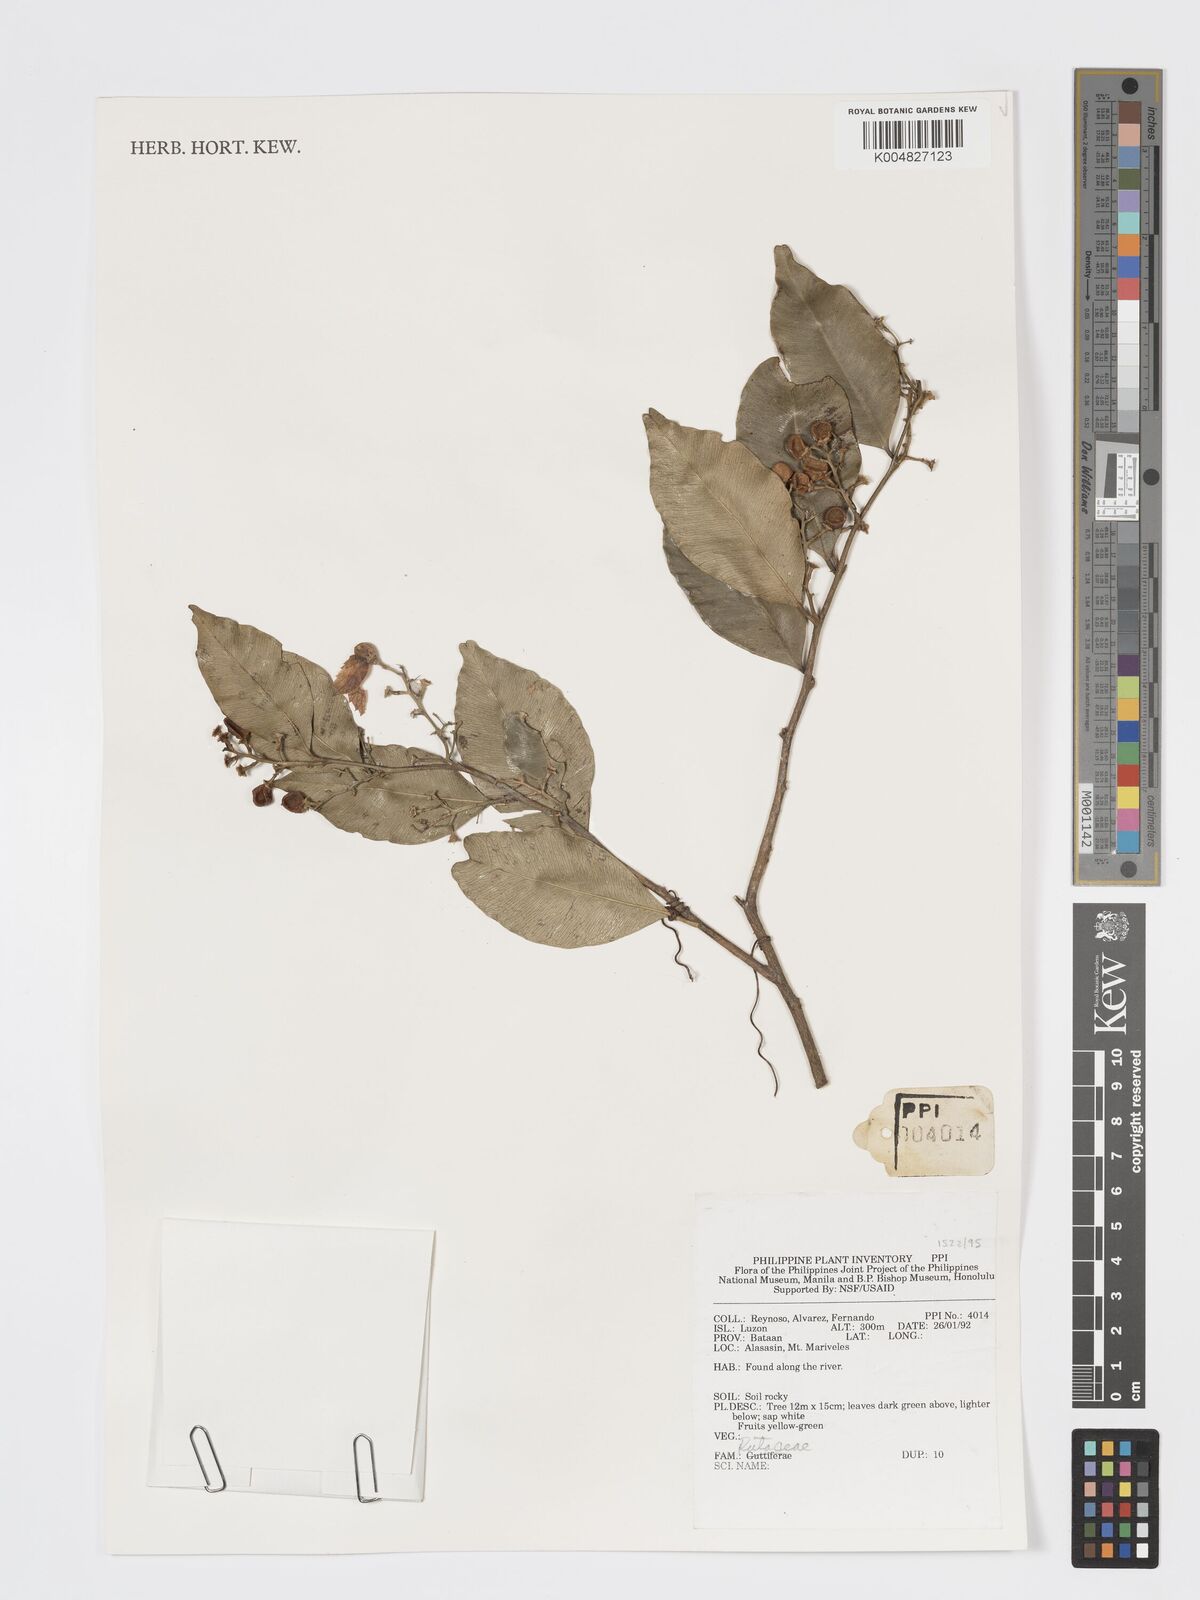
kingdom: Plantae
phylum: Tracheophyta
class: Magnoliopsida
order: Sapindales
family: Rutaceae
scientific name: Rutaceae
